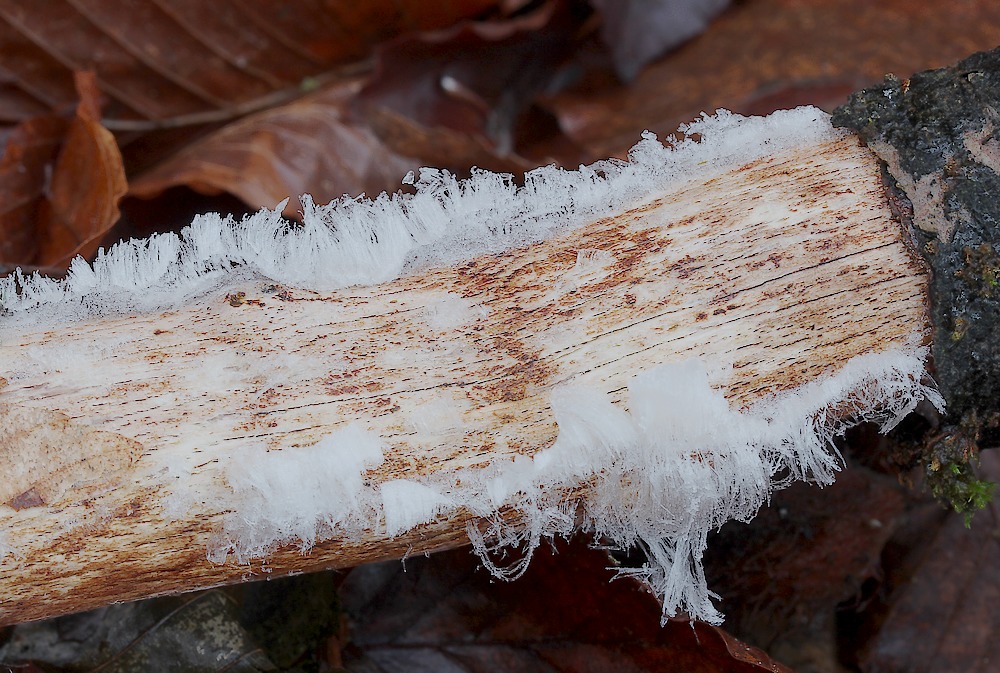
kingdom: Fungi
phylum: Basidiomycota
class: Tremellomycetes
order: Tremellales
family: Exidiaceae
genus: Exidiopsis
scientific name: Exidiopsis effusa
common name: smuk bævrehinde
